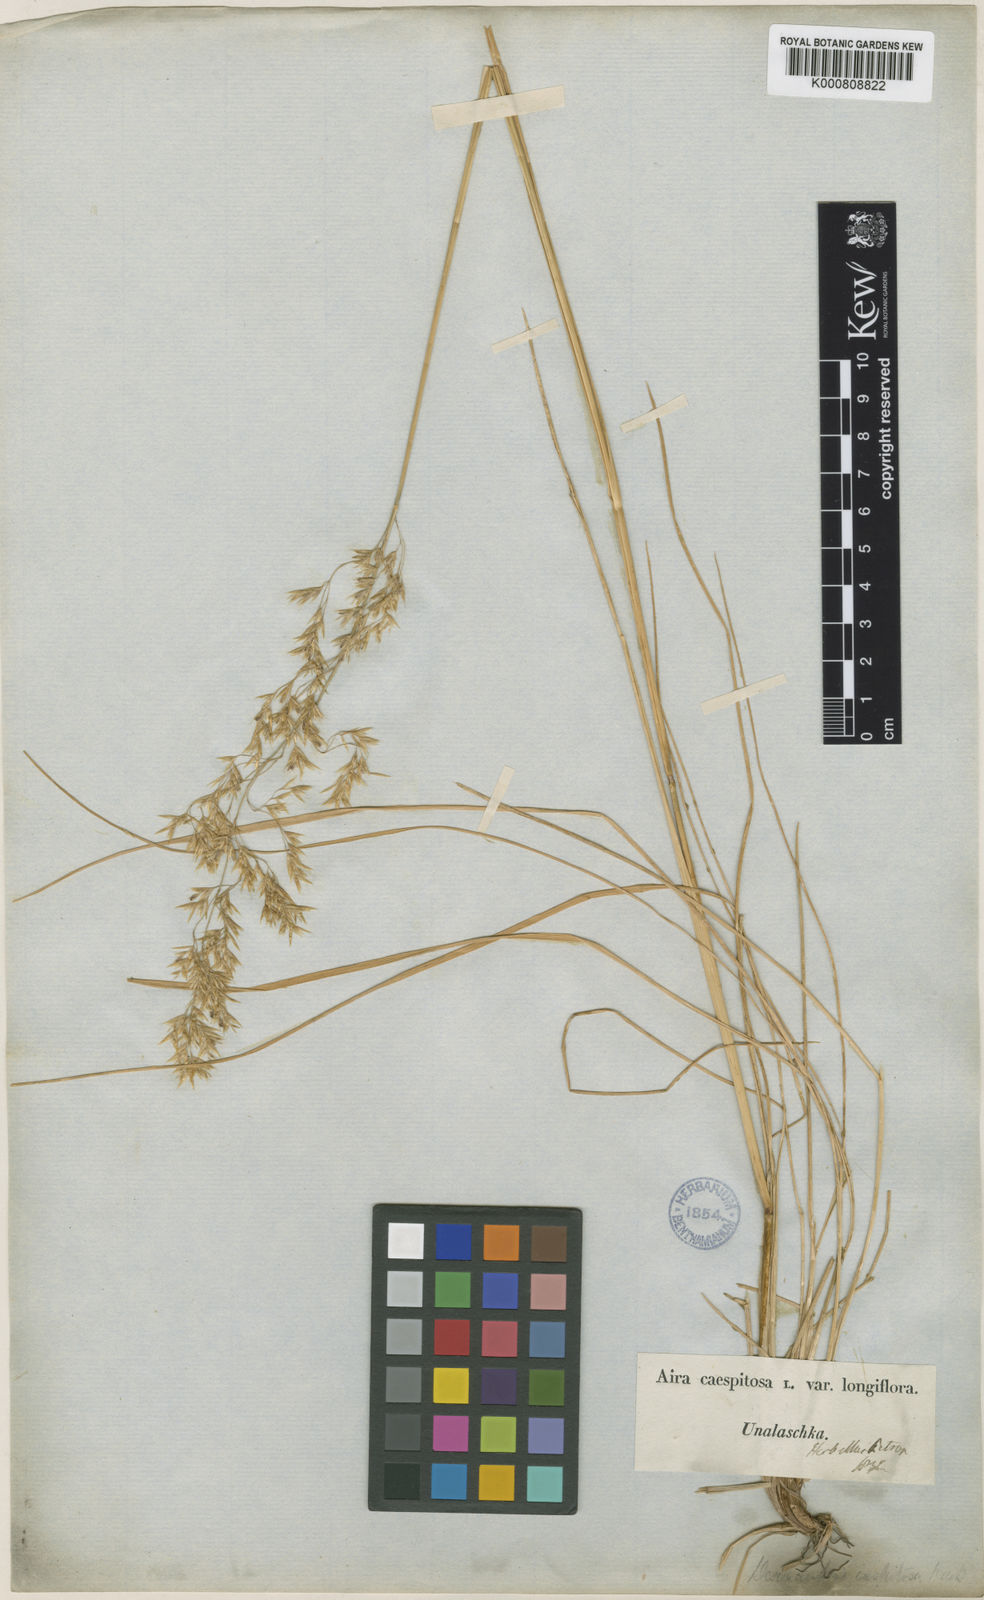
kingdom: Plantae
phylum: Tracheophyta
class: Liliopsida
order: Poales
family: Poaceae
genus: Deschampsia
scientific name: Deschampsia
